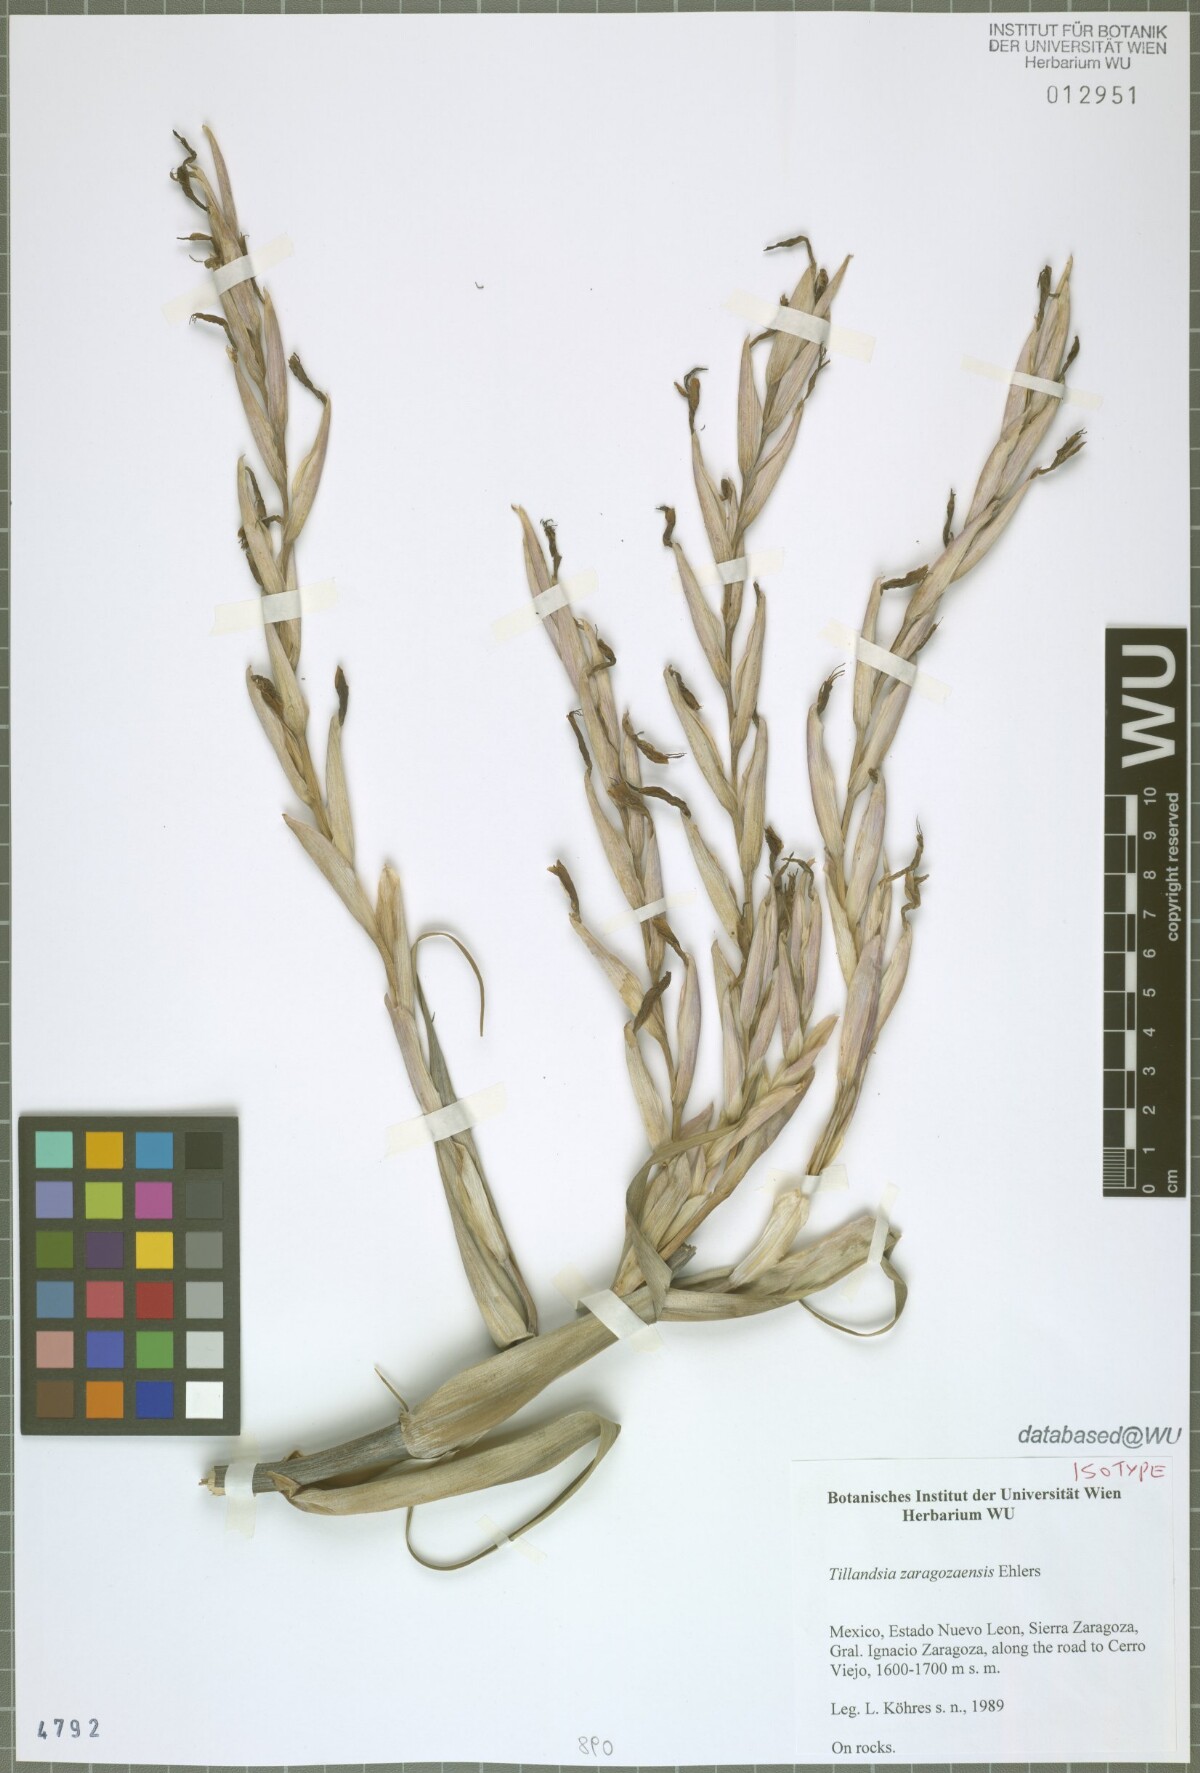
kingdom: Plantae
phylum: Tracheophyta
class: Liliopsida
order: Poales
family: Bromeliaceae
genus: Tillandsia
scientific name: Tillandsia zaragozaensis
